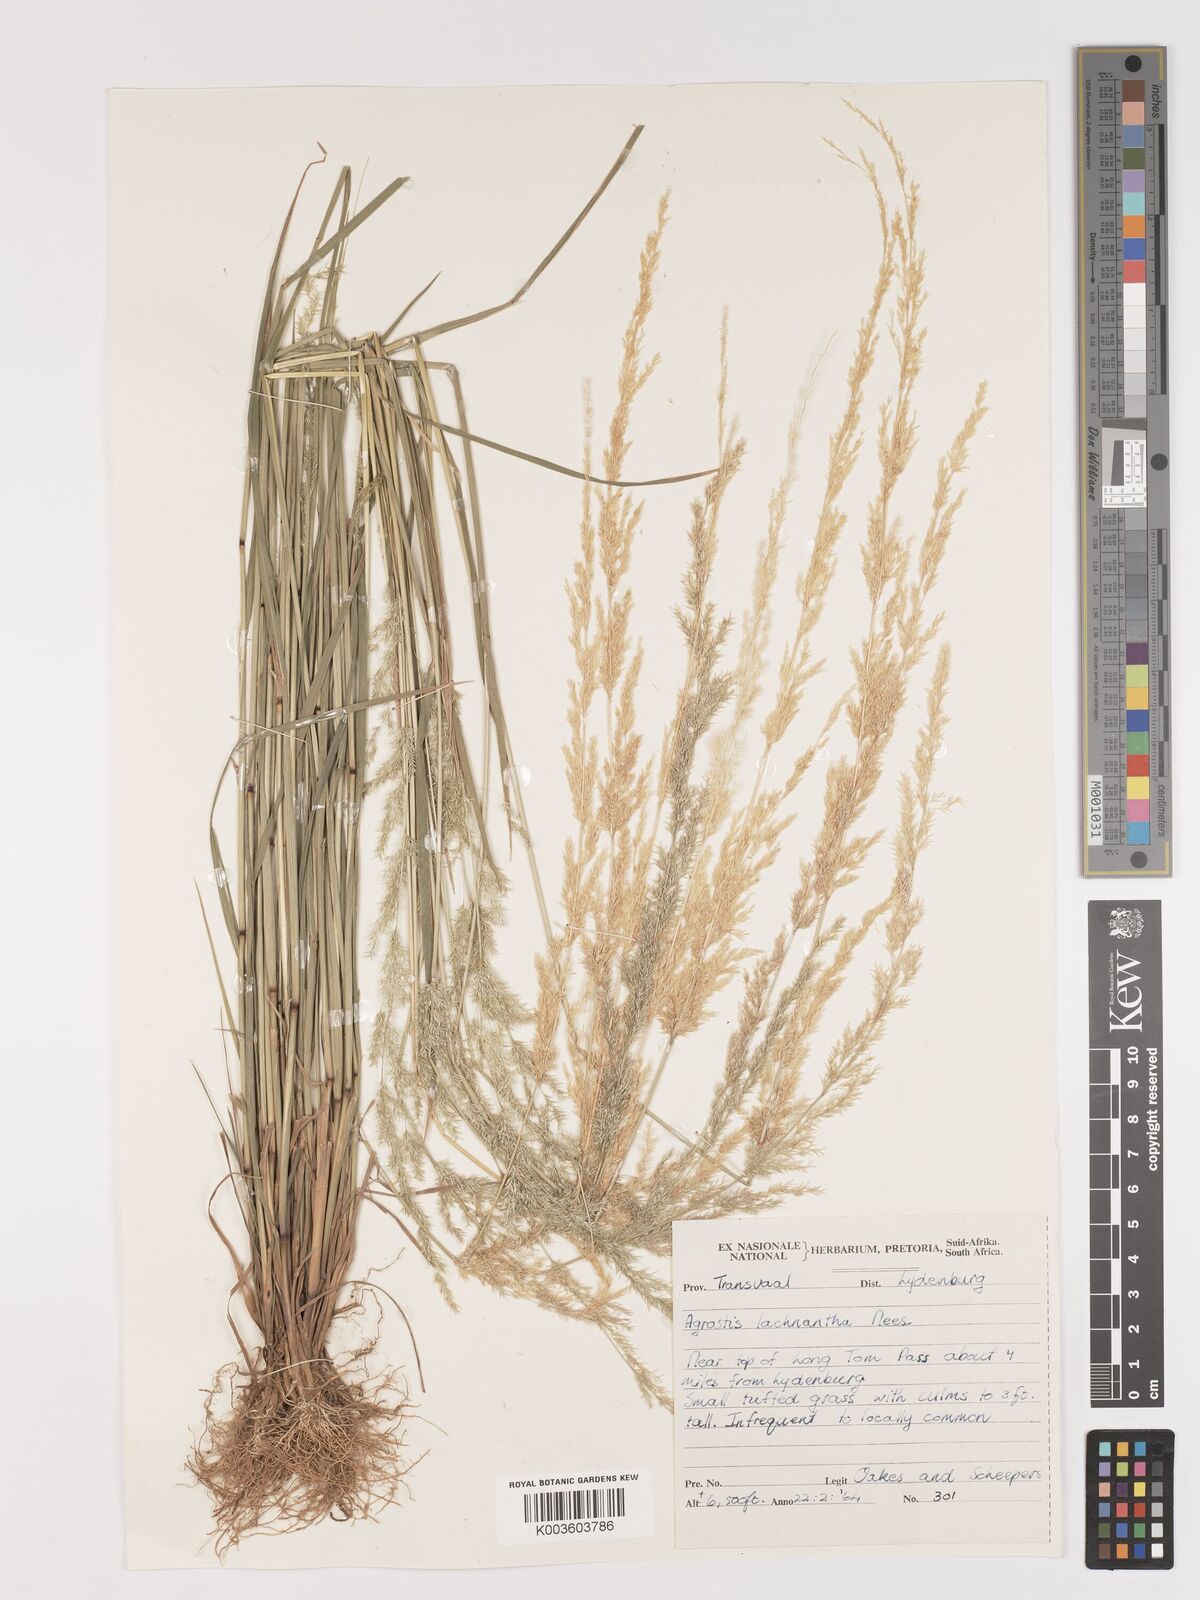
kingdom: Plantae
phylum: Tracheophyta
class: Liliopsida
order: Poales
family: Poaceae
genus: Lachnagrostis
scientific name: Lachnagrostis lachnantha
